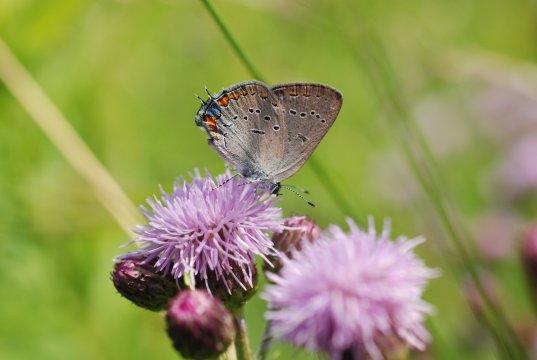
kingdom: Animalia
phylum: Arthropoda
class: Insecta
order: Lepidoptera
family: Lycaenidae
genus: Strymon
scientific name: Strymon acadica
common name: Acadian Hairstreak
